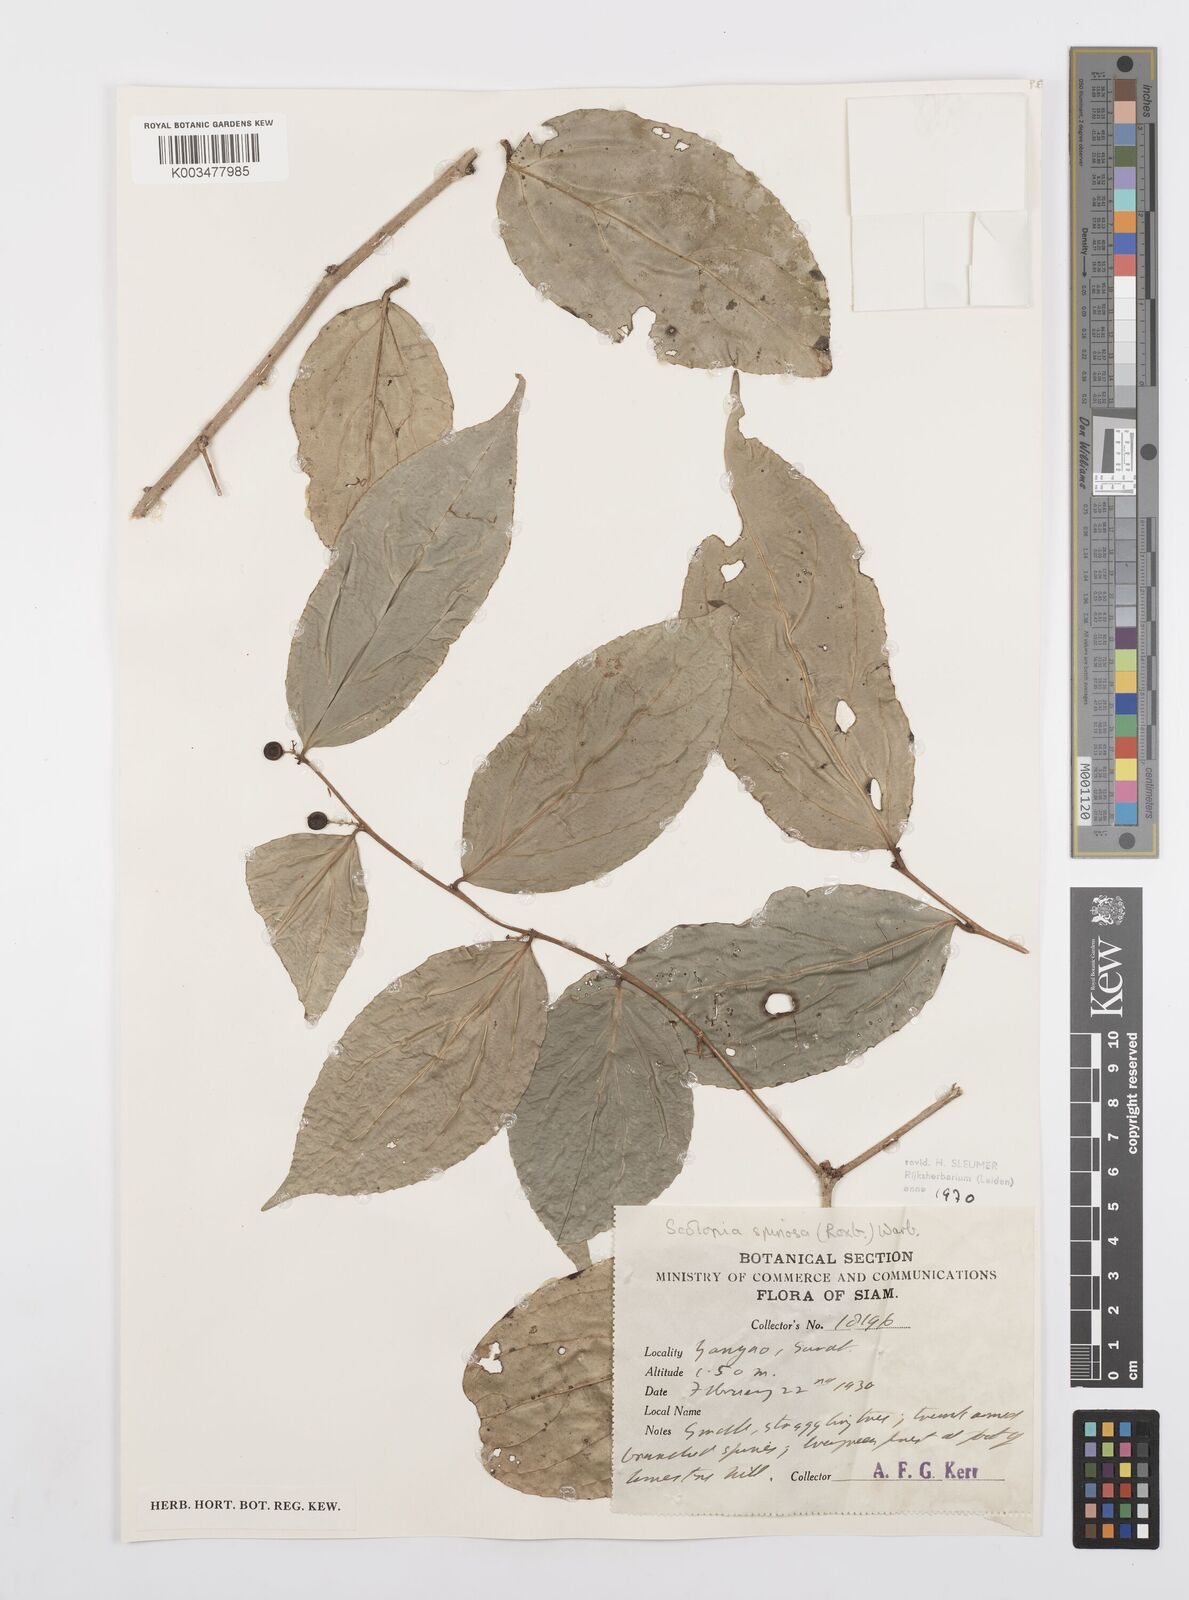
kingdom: Plantae
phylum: Tracheophyta
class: Magnoliopsida
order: Malpighiales
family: Salicaceae
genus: Scolopia
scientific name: Scolopia spinosa
